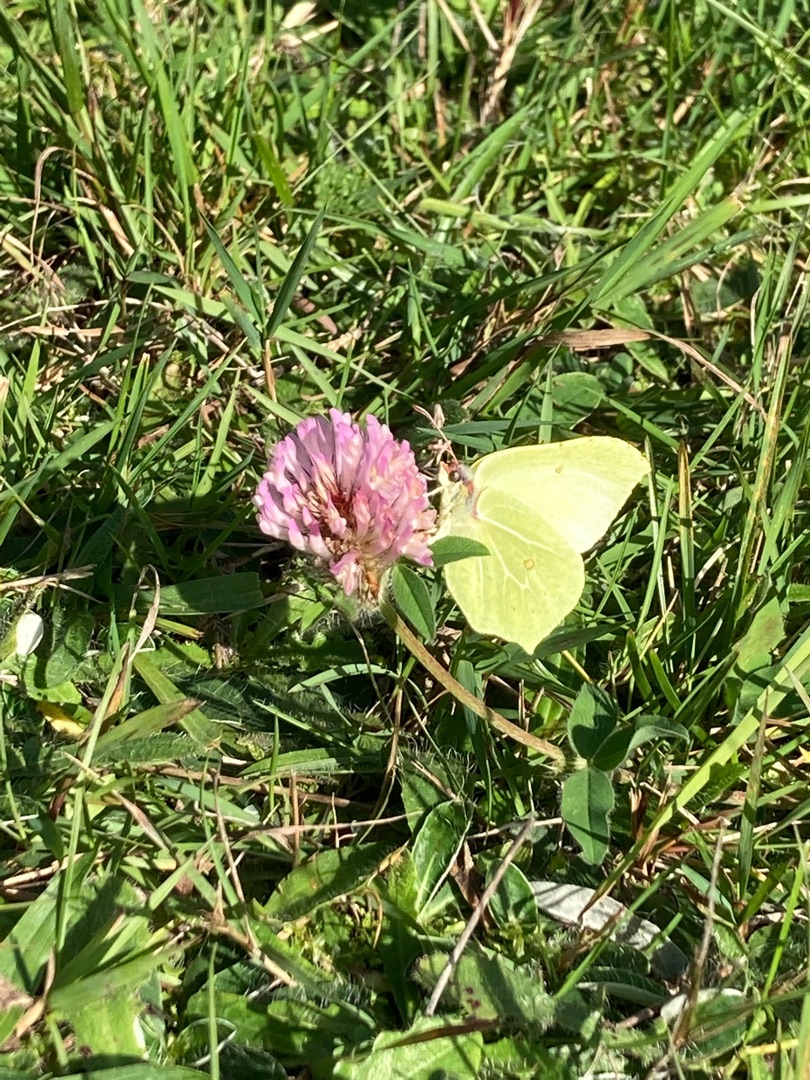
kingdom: Animalia
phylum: Arthropoda
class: Insecta
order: Lepidoptera
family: Pieridae
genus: Gonepteryx
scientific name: Gonepteryx rhamni
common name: Citronsommerfugl
